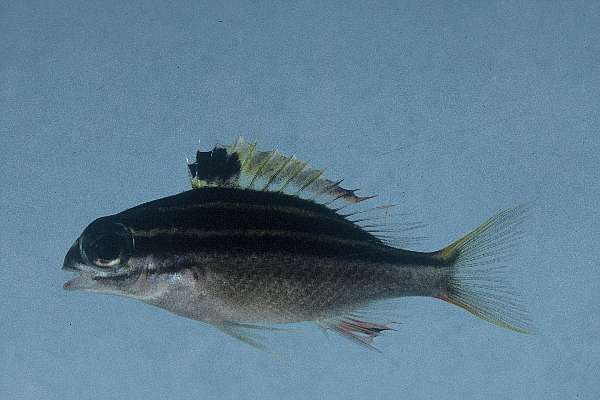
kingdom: Animalia
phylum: Chordata
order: Perciformes
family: Nemipteridae
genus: Scolopsis
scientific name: Scolopsis bilineata
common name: Two-lined monocle bream
